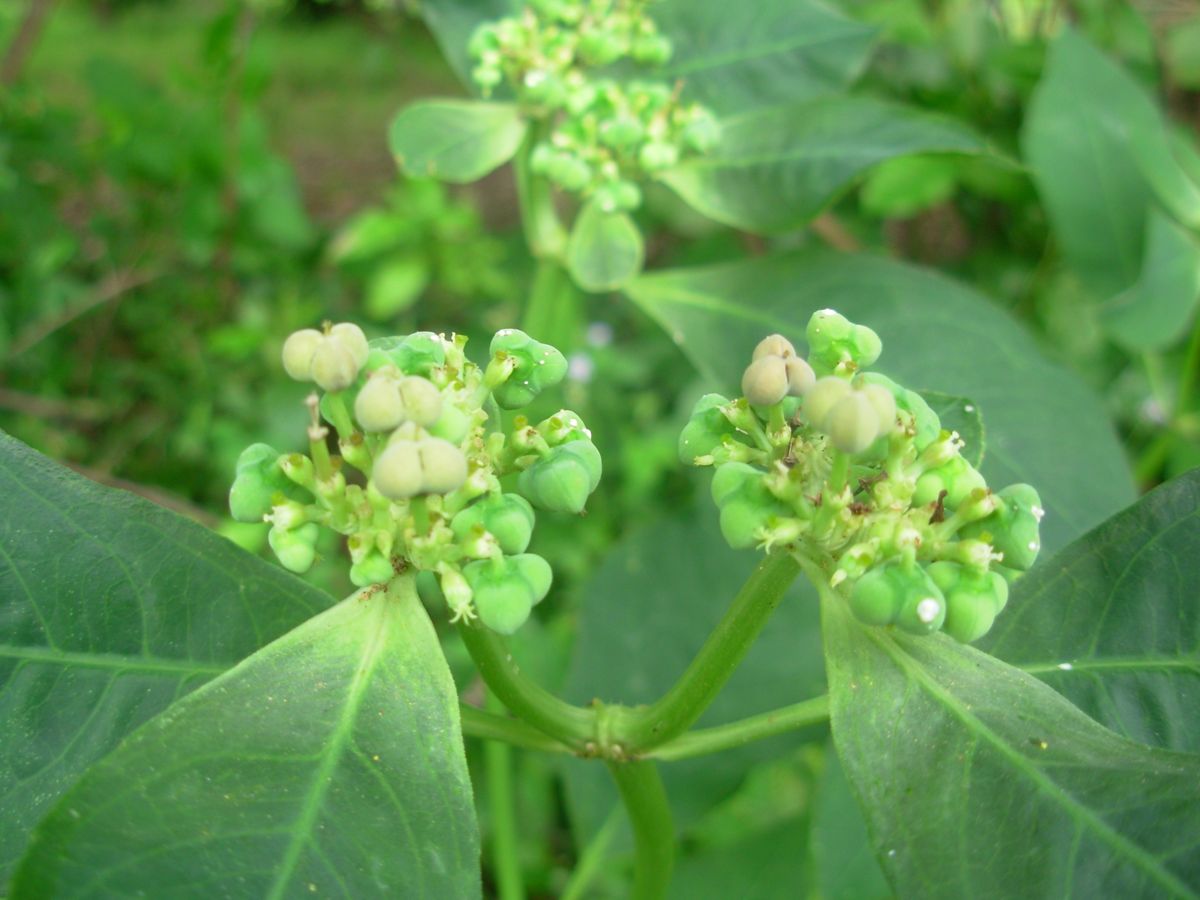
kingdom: Plantae
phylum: Tracheophyta
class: Magnoliopsida
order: Malpighiales
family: Euphorbiaceae
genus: Euphorbia
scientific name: Euphorbia heterophylla
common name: Mexican fireplant
